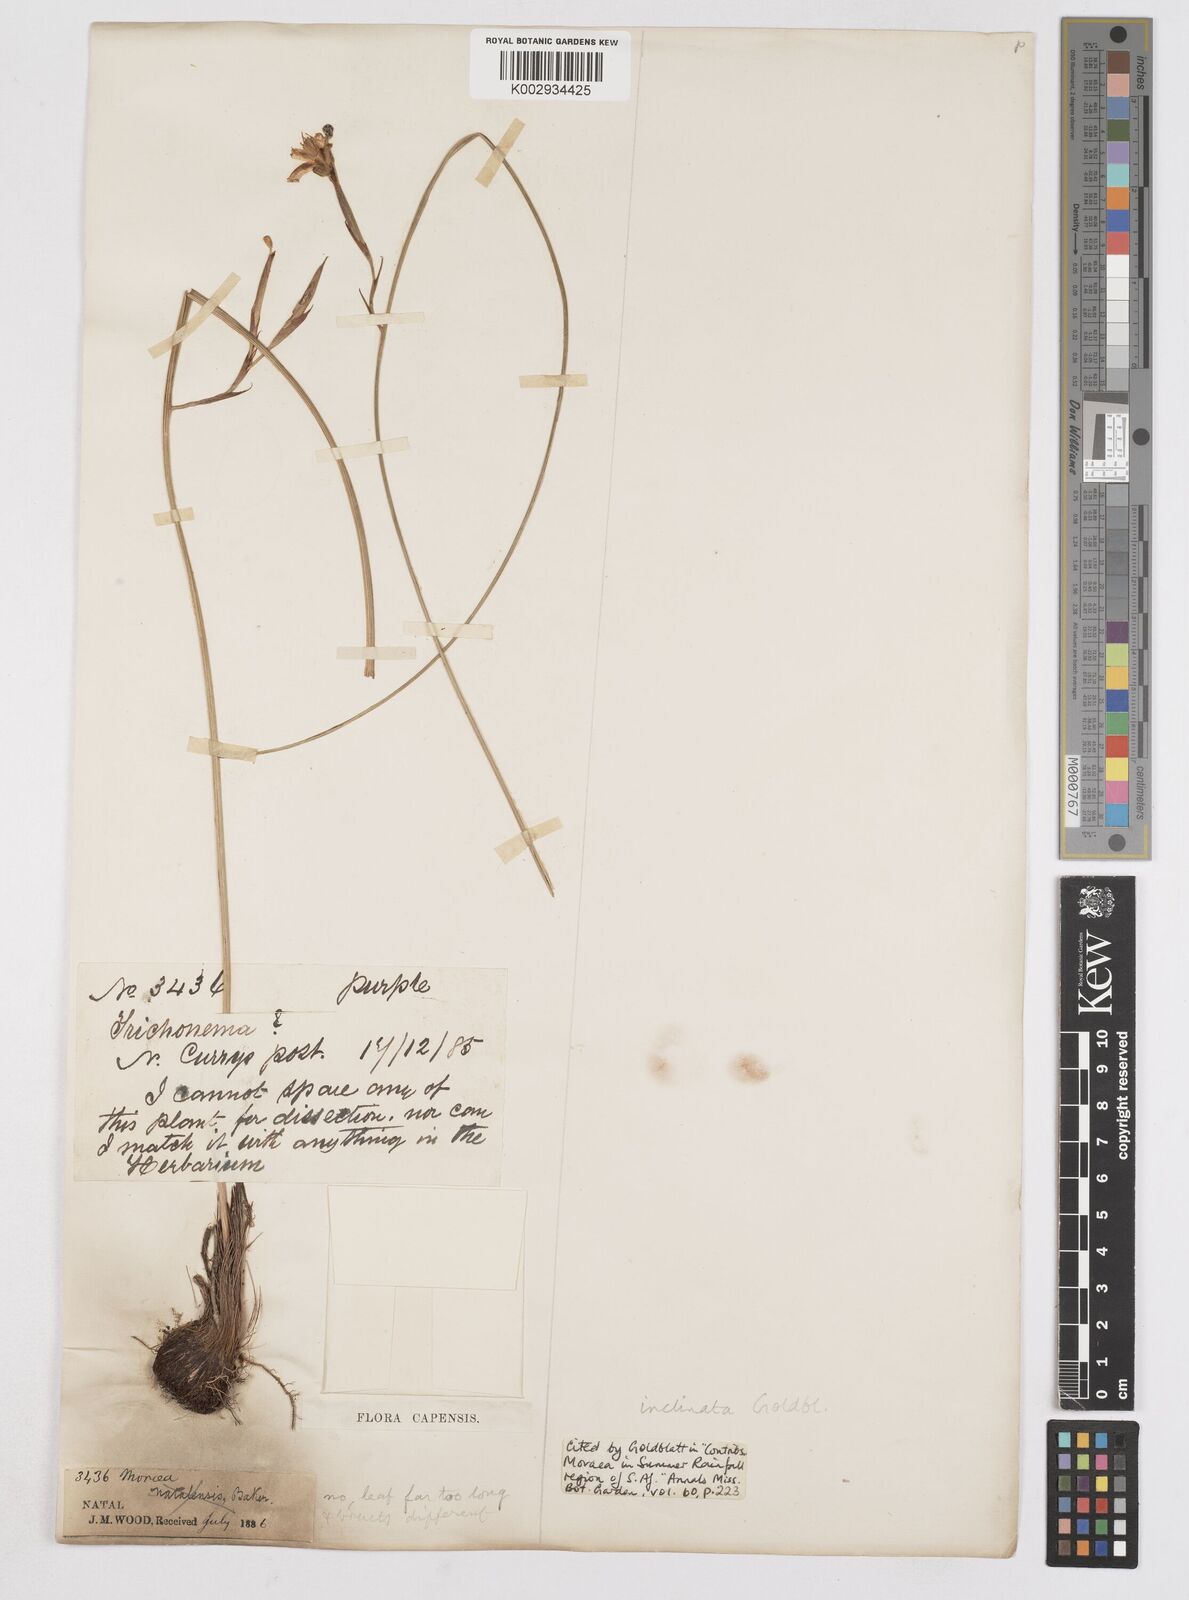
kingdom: Plantae
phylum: Tracheophyta
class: Liliopsida
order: Asparagales
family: Iridaceae
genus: Moraea
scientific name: Moraea inclinata
